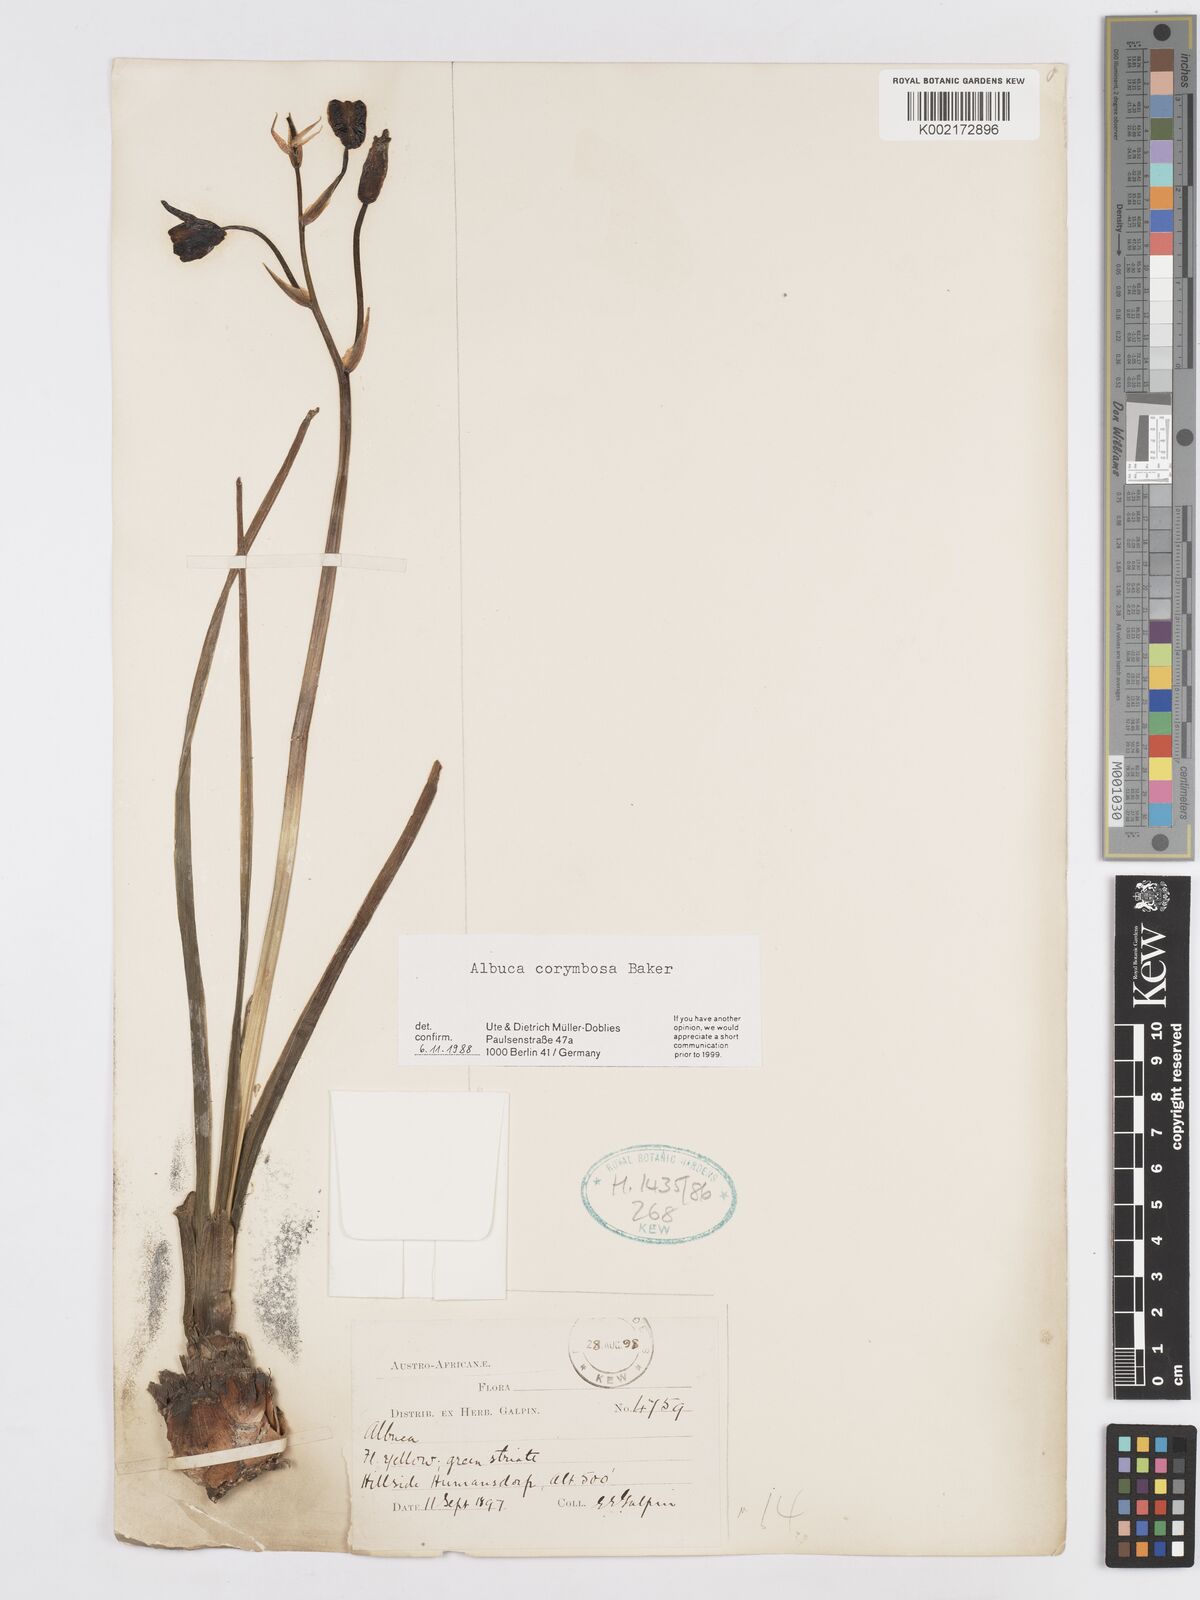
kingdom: Plantae
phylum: Tracheophyta
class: Liliopsida
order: Asparagales
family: Asparagaceae
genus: Albuca
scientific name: Albuca corymbosa
